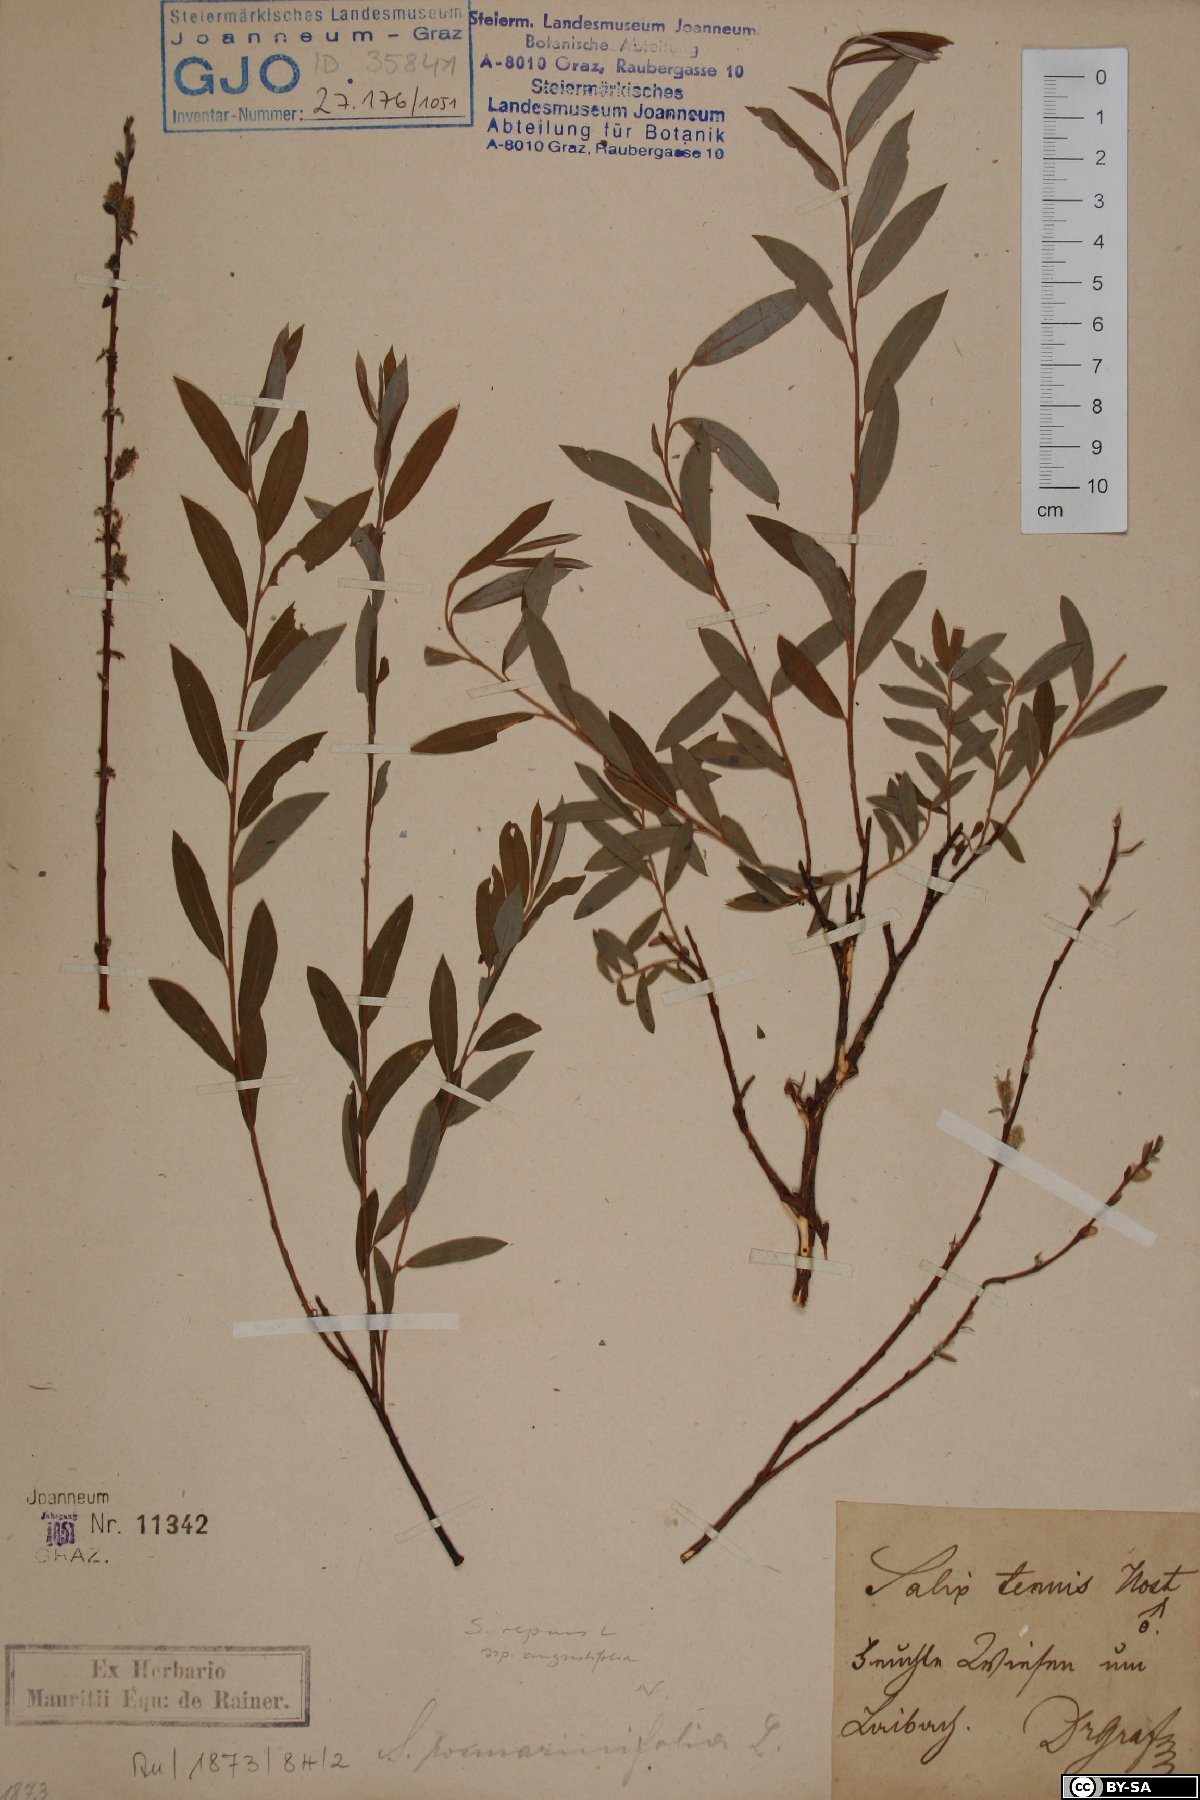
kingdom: Plantae
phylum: Tracheophyta
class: Magnoliopsida
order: Malpighiales
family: Salicaceae
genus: Salix
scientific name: Salix rosmarinifolia
